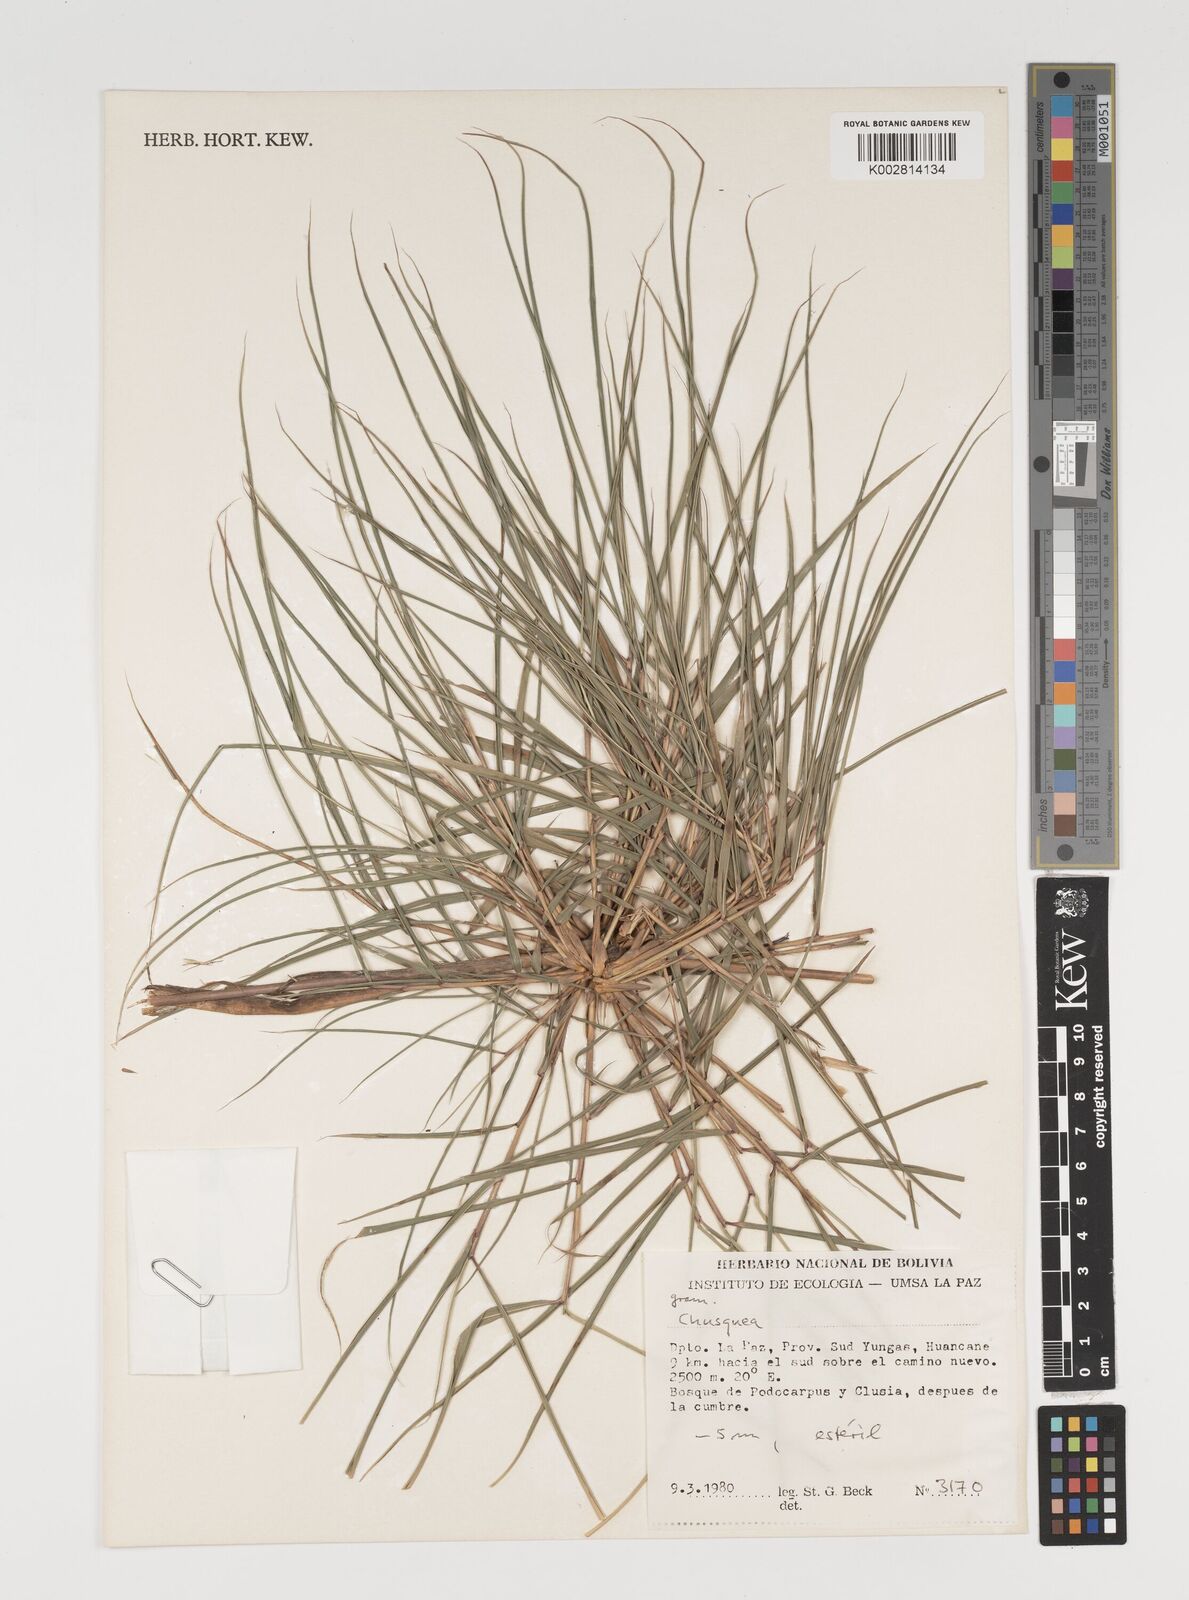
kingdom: Plantae
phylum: Tracheophyta
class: Liliopsida
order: Poales
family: Poaceae
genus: Chusquea
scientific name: Chusquea
